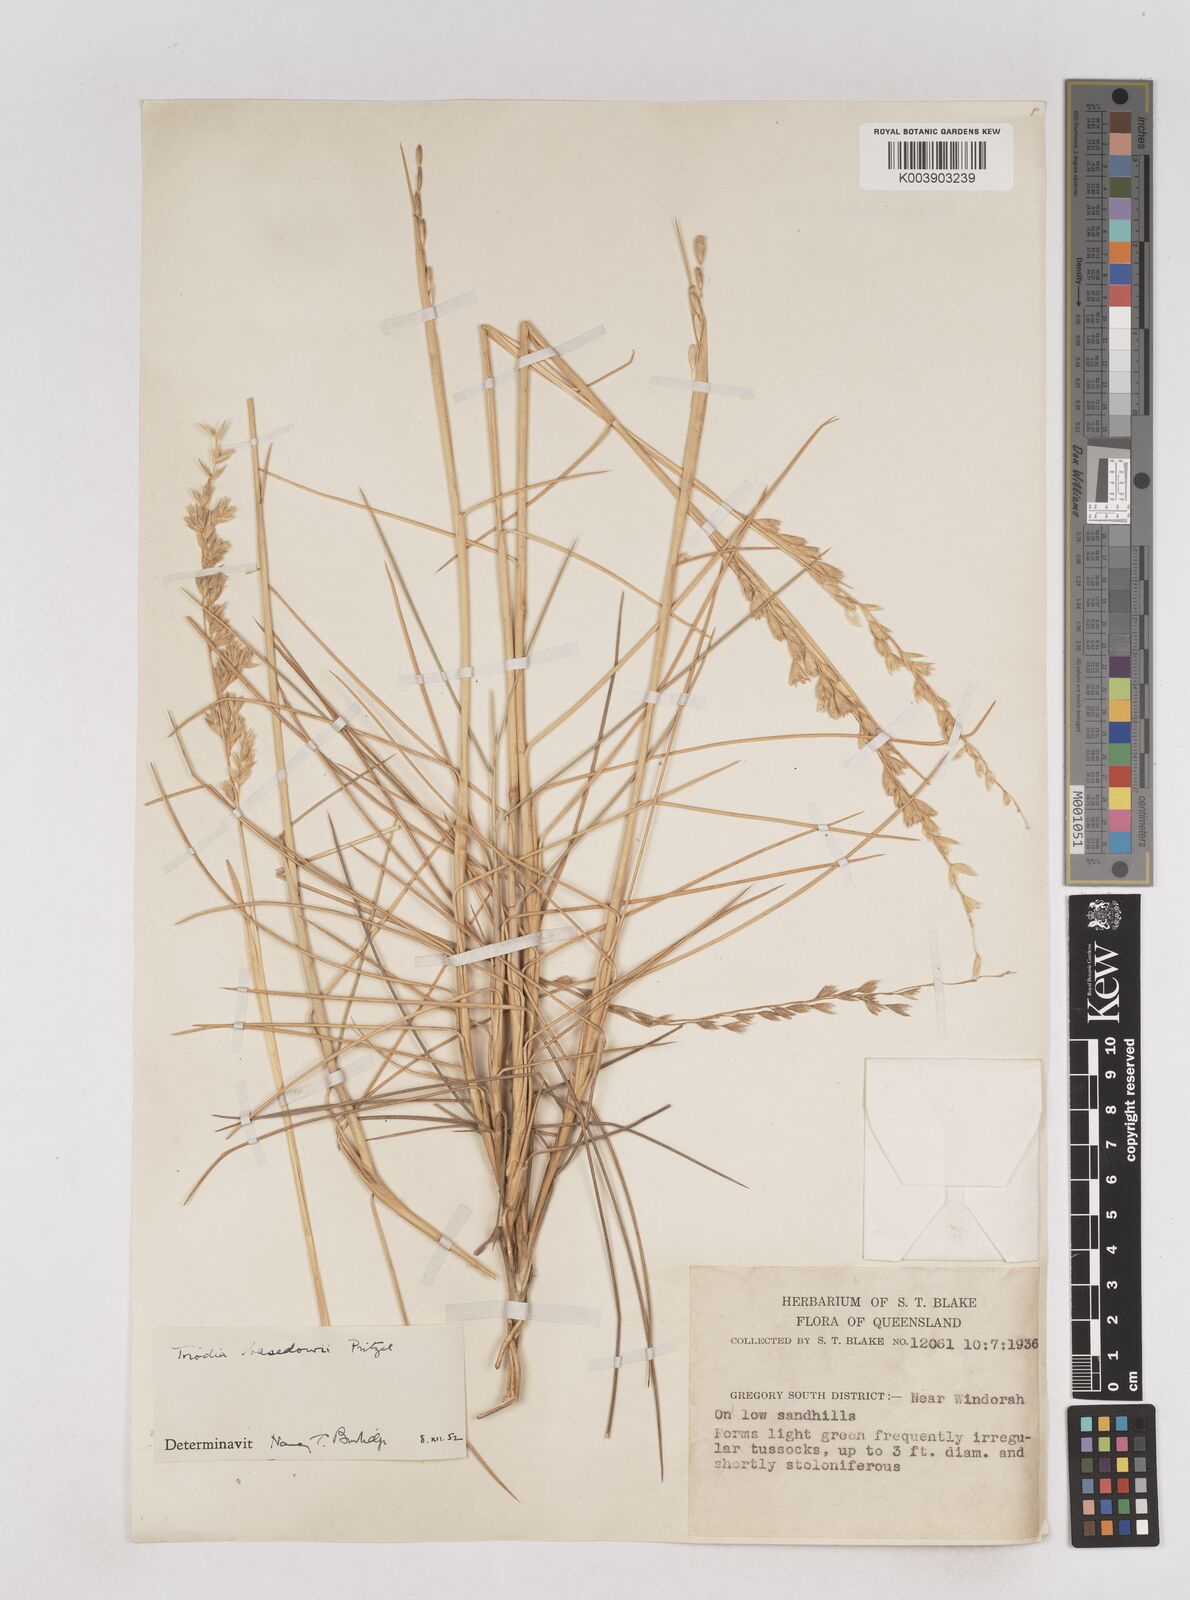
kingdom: Plantae
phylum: Tracheophyta
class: Liliopsida
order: Poales
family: Poaceae
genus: Triodia
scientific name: Triodia basedowii
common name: Hard spinifex
